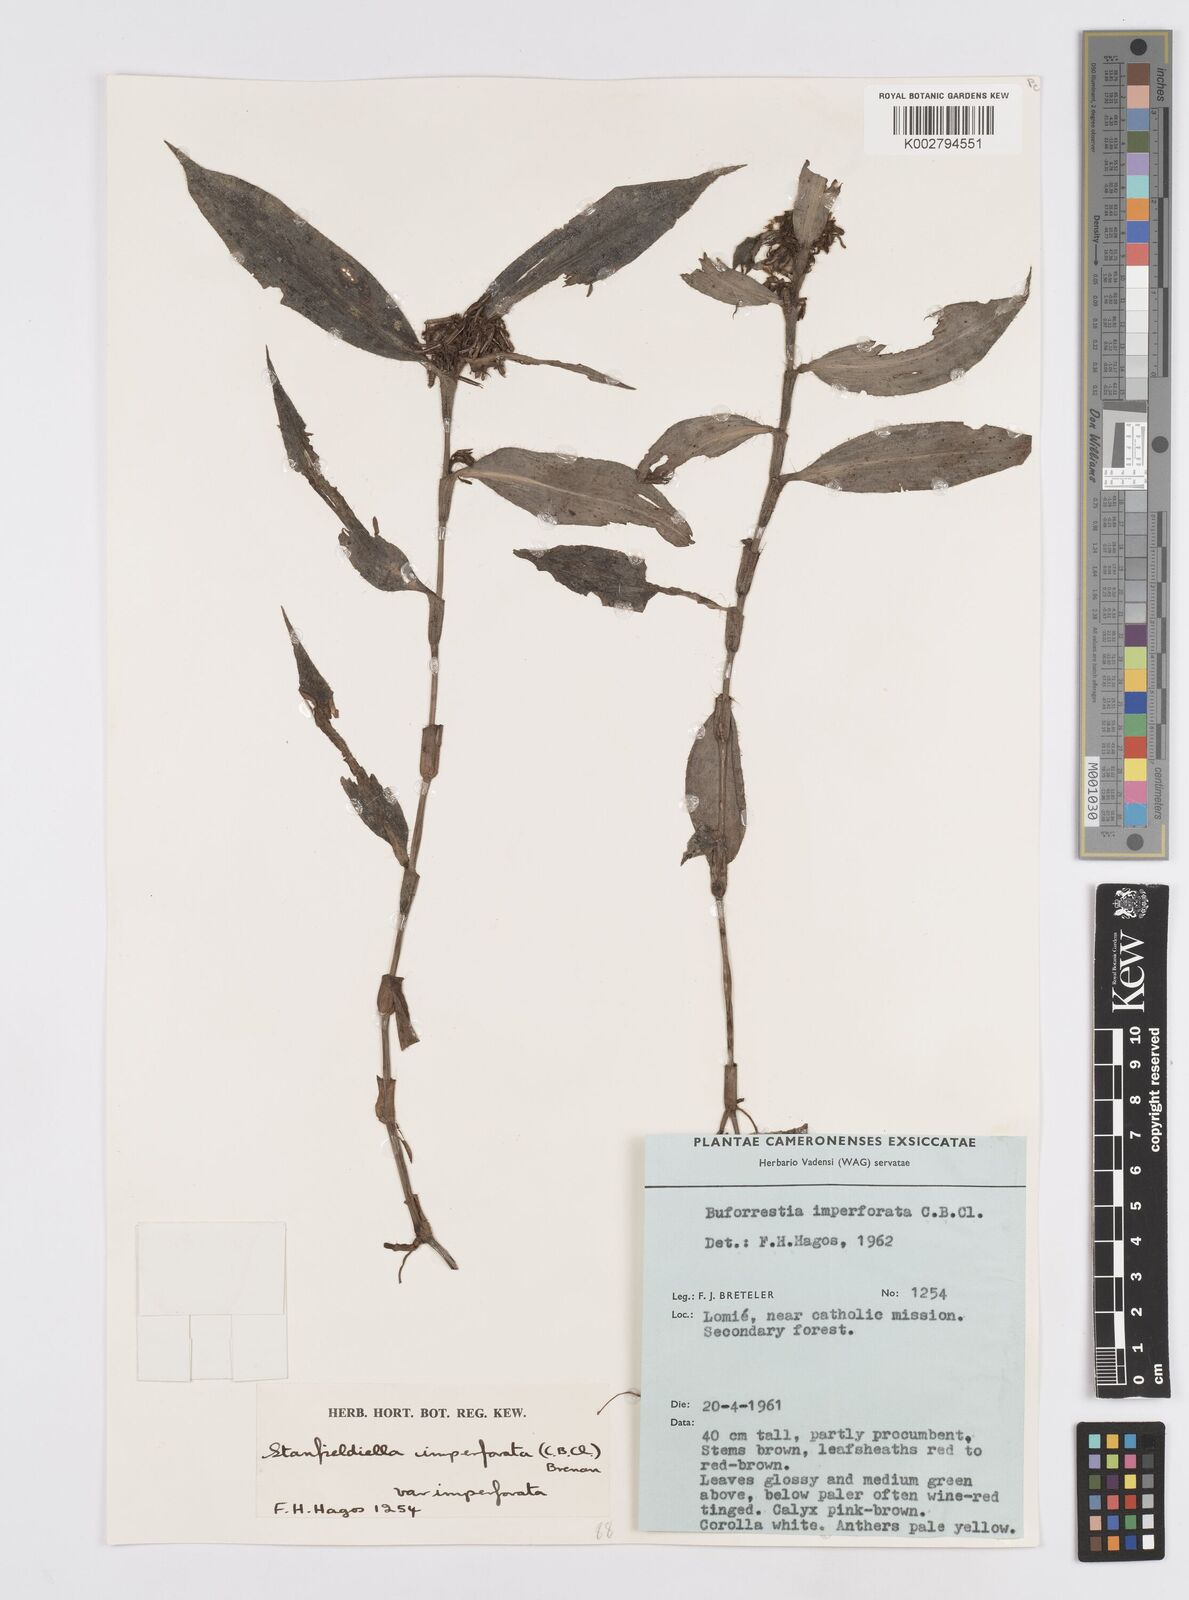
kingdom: Plantae
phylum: Tracheophyta
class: Liliopsida
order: Commelinales
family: Commelinaceae
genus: Stanfieldiella
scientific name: Stanfieldiella imperforata
